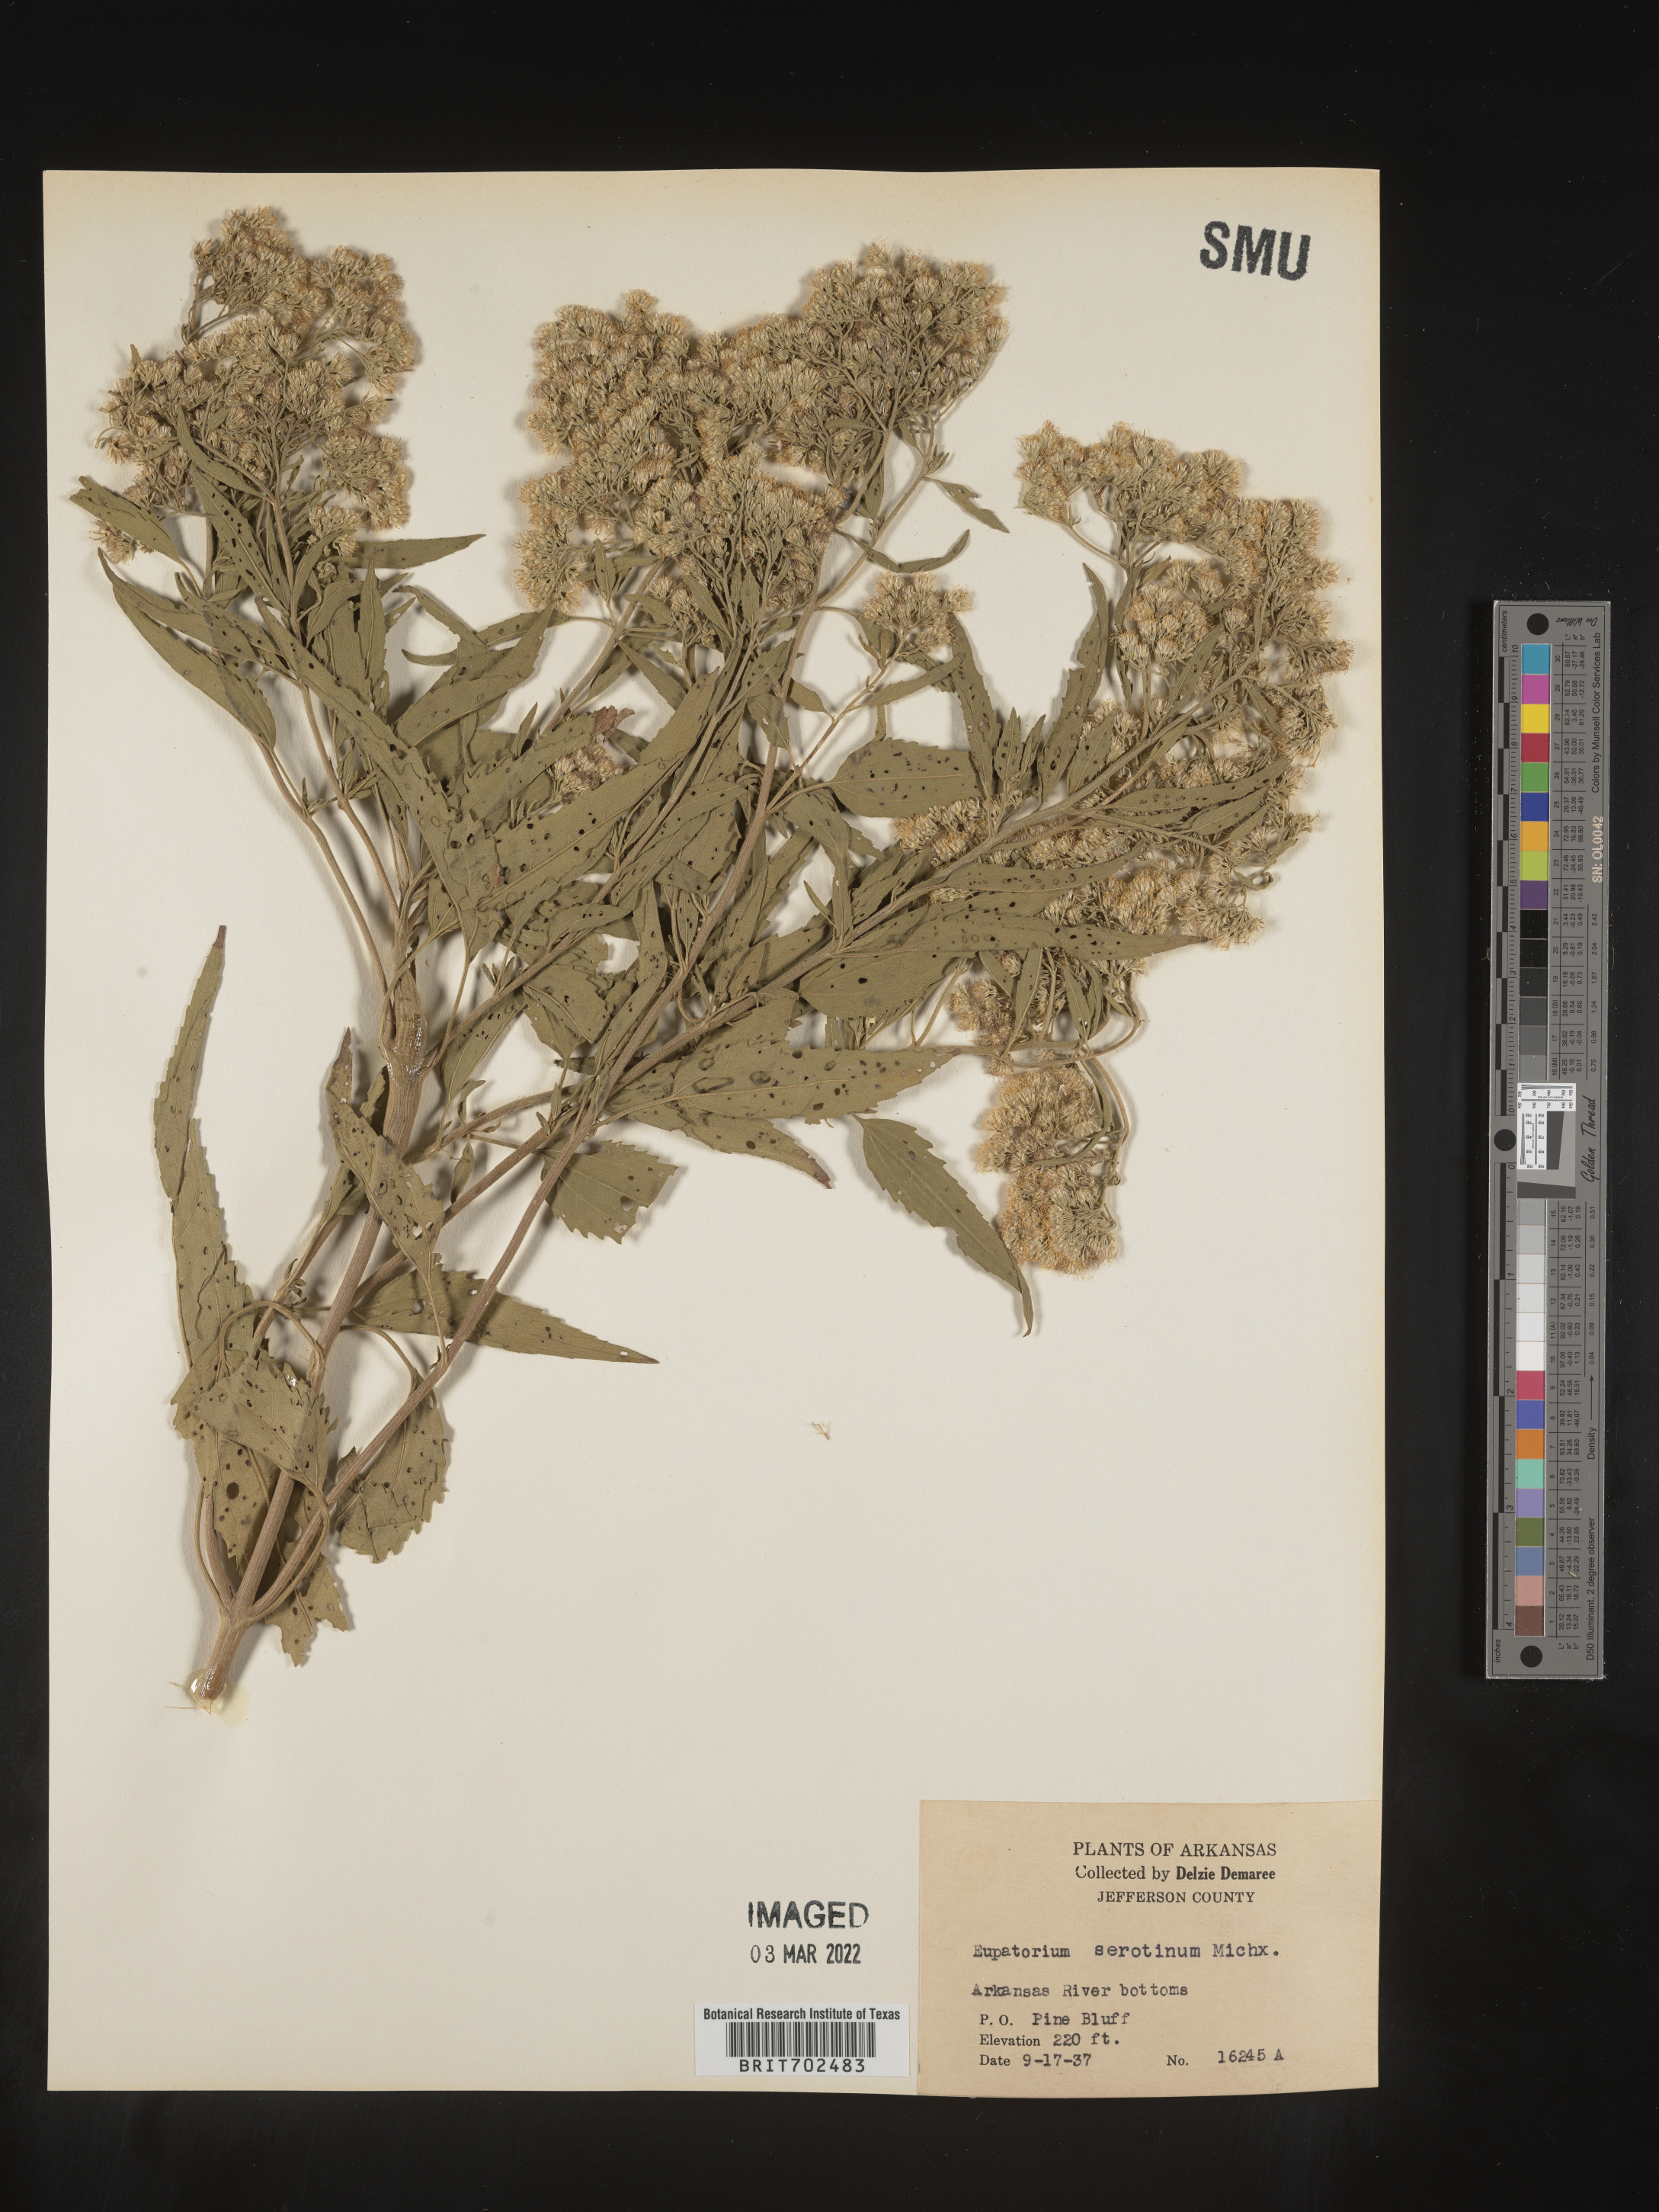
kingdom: Plantae
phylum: Tracheophyta
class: Magnoliopsida
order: Asterales
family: Asteraceae
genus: Eupatorium
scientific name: Eupatorium serotinum
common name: Late boneset
